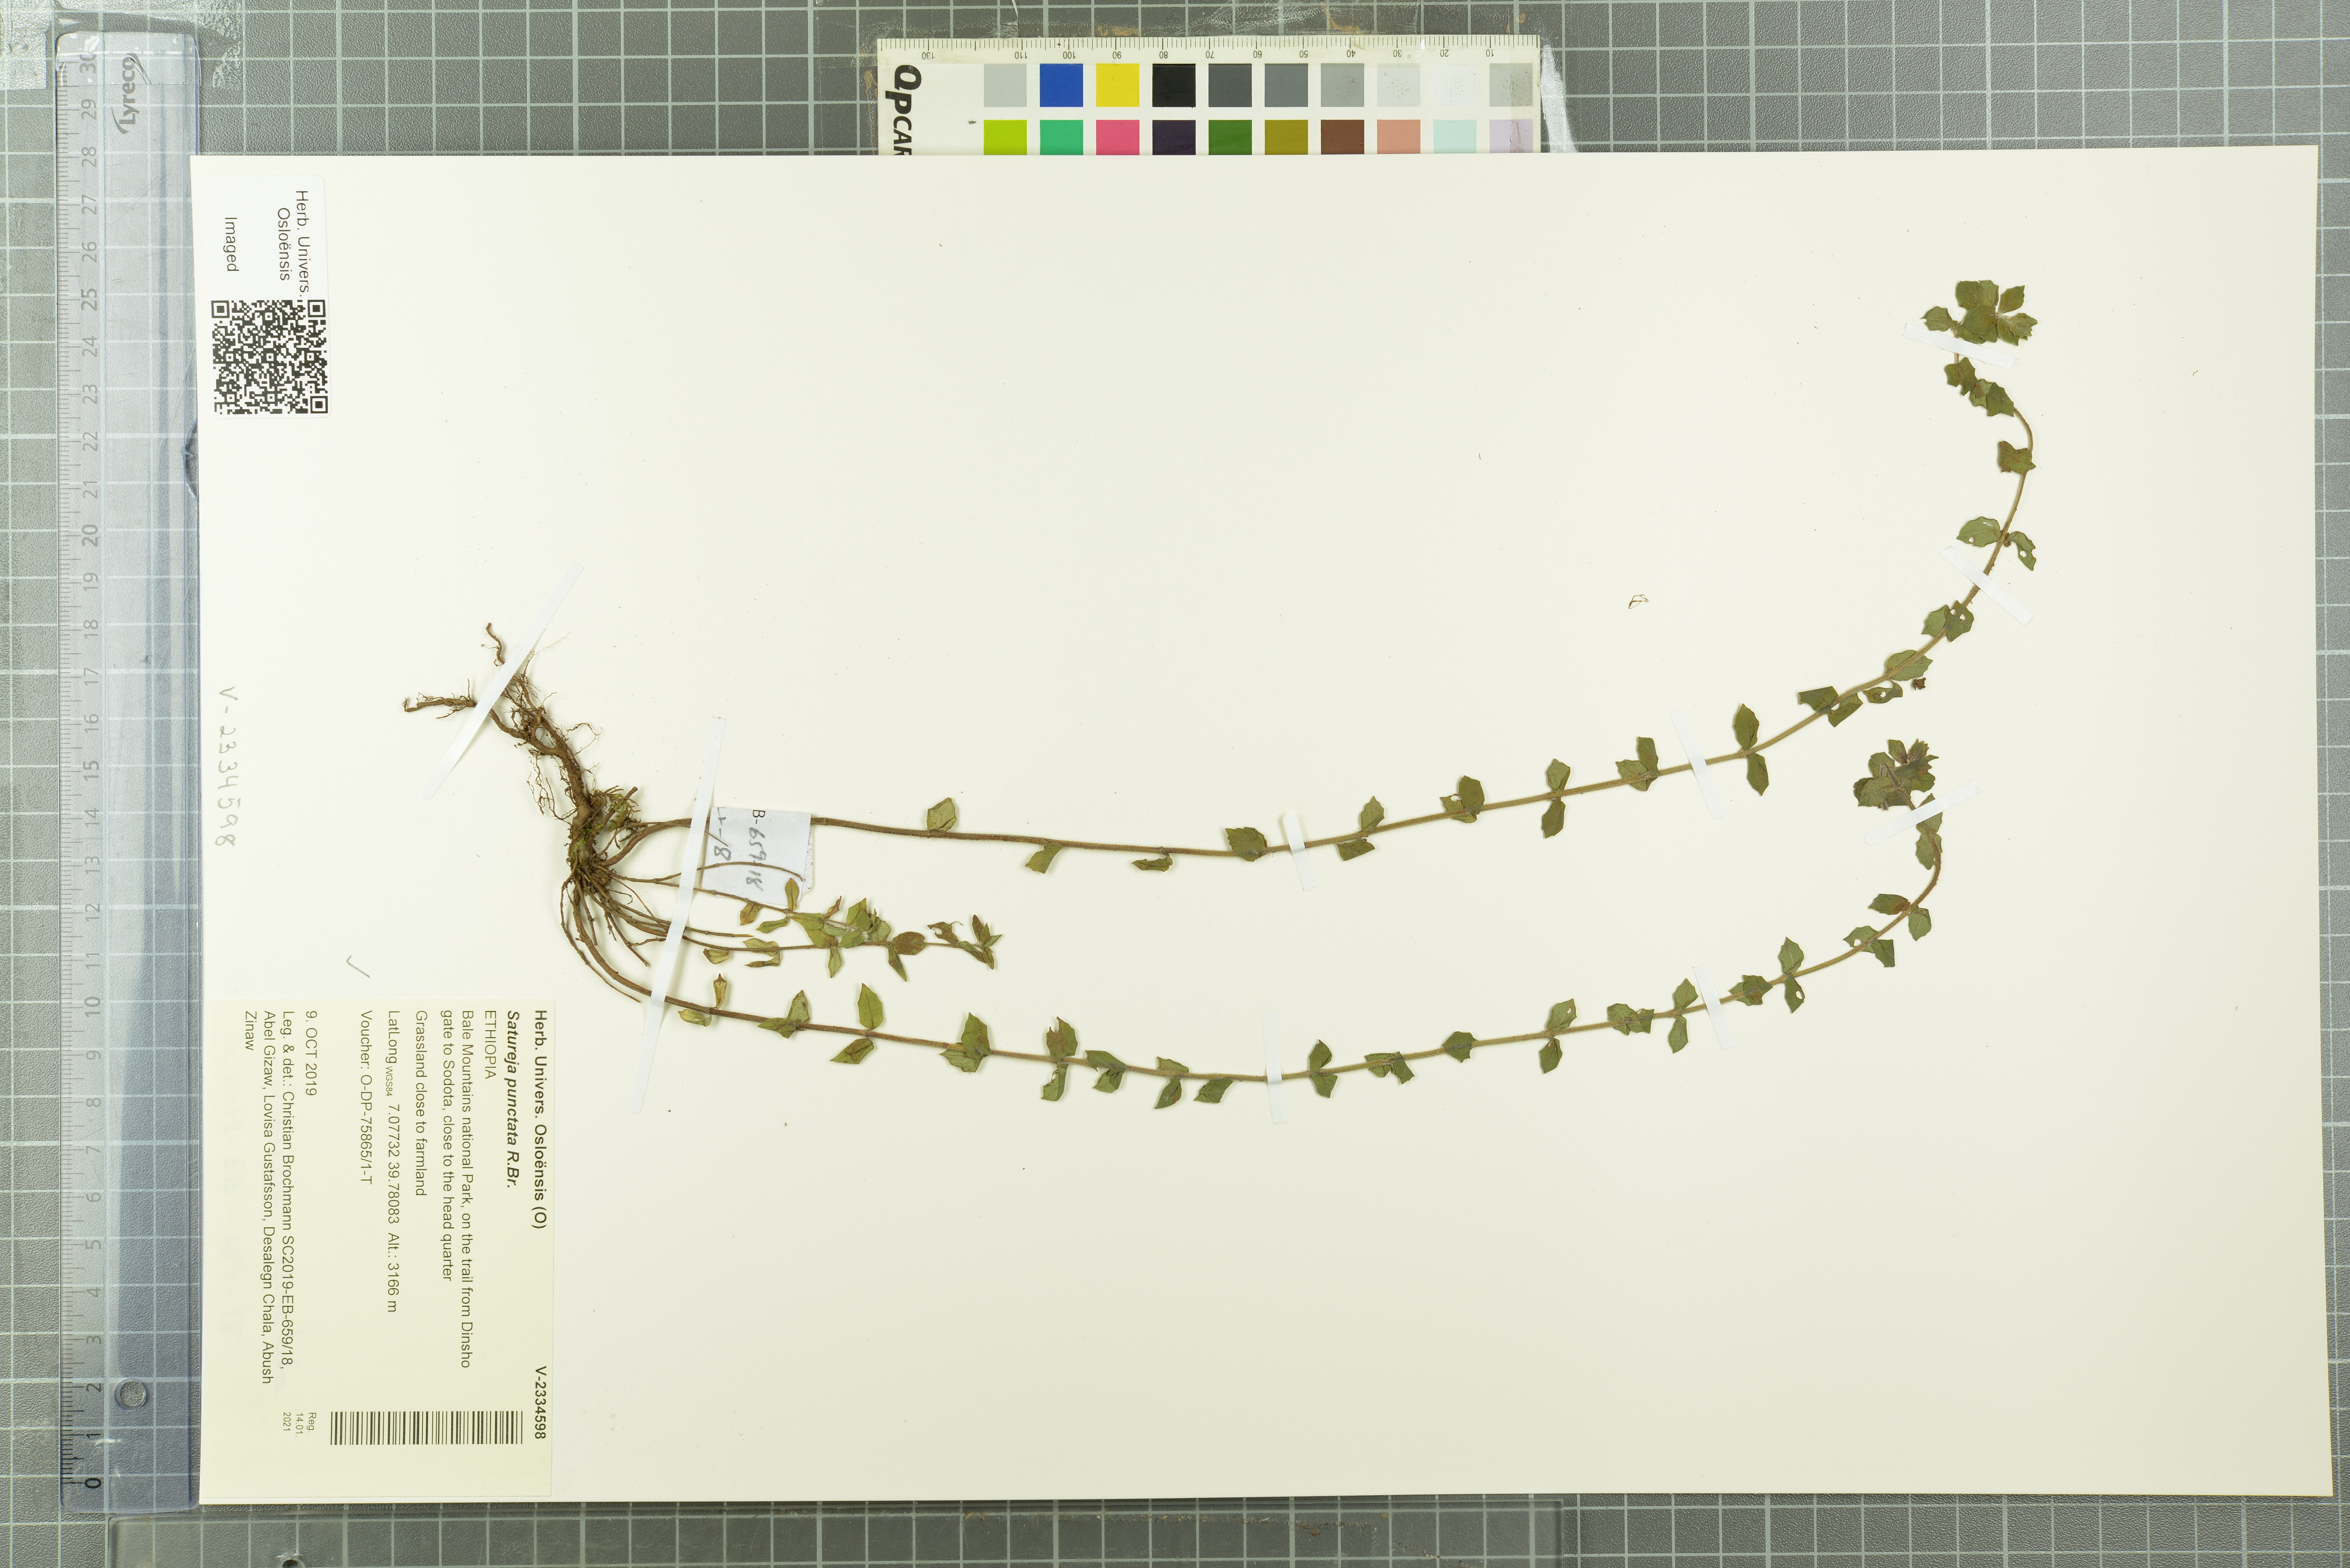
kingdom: Plantae
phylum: Tracheophyta
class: Magnoliopsida
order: Lamiales
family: Lamiaceae
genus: Micromeria
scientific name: Micromeria imbricata
